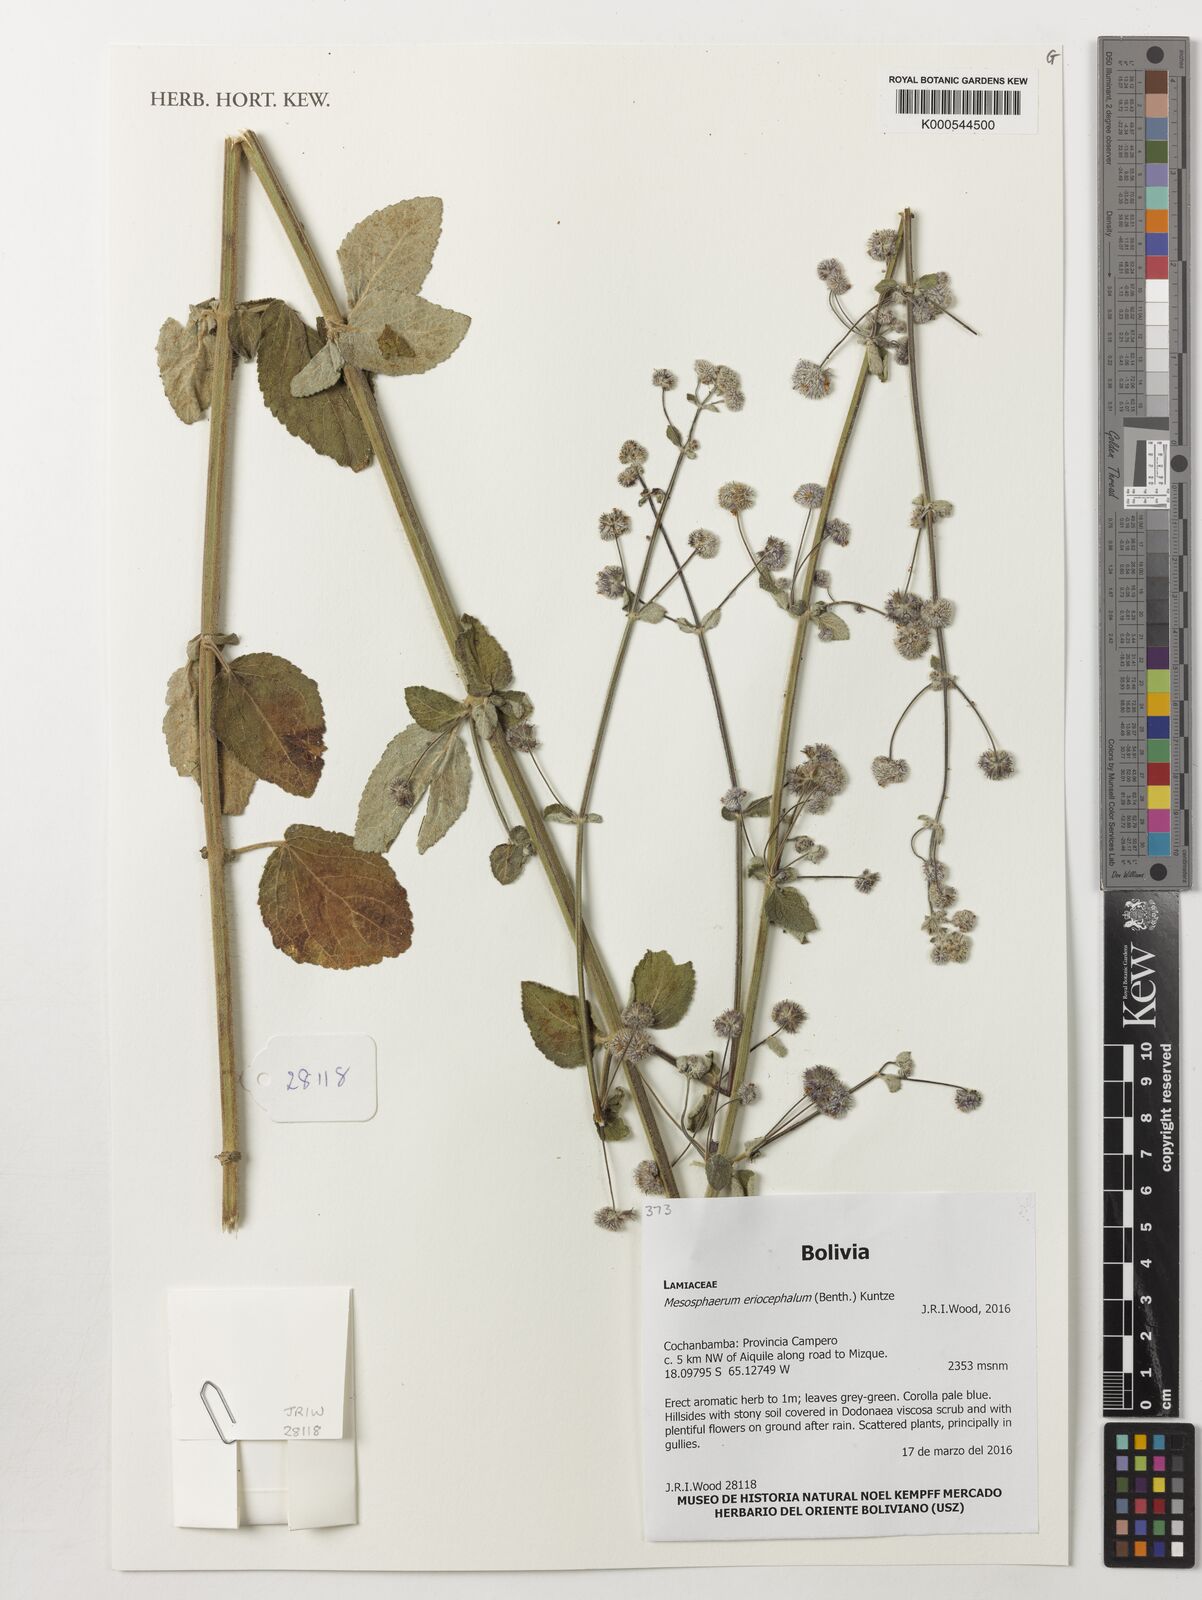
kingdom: Plantae
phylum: Tracheophyta
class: Magnoliopsida
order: Lamiales
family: Lamiaceae
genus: Mesosphaerum
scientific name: Mesosphaerum eriocephalum
